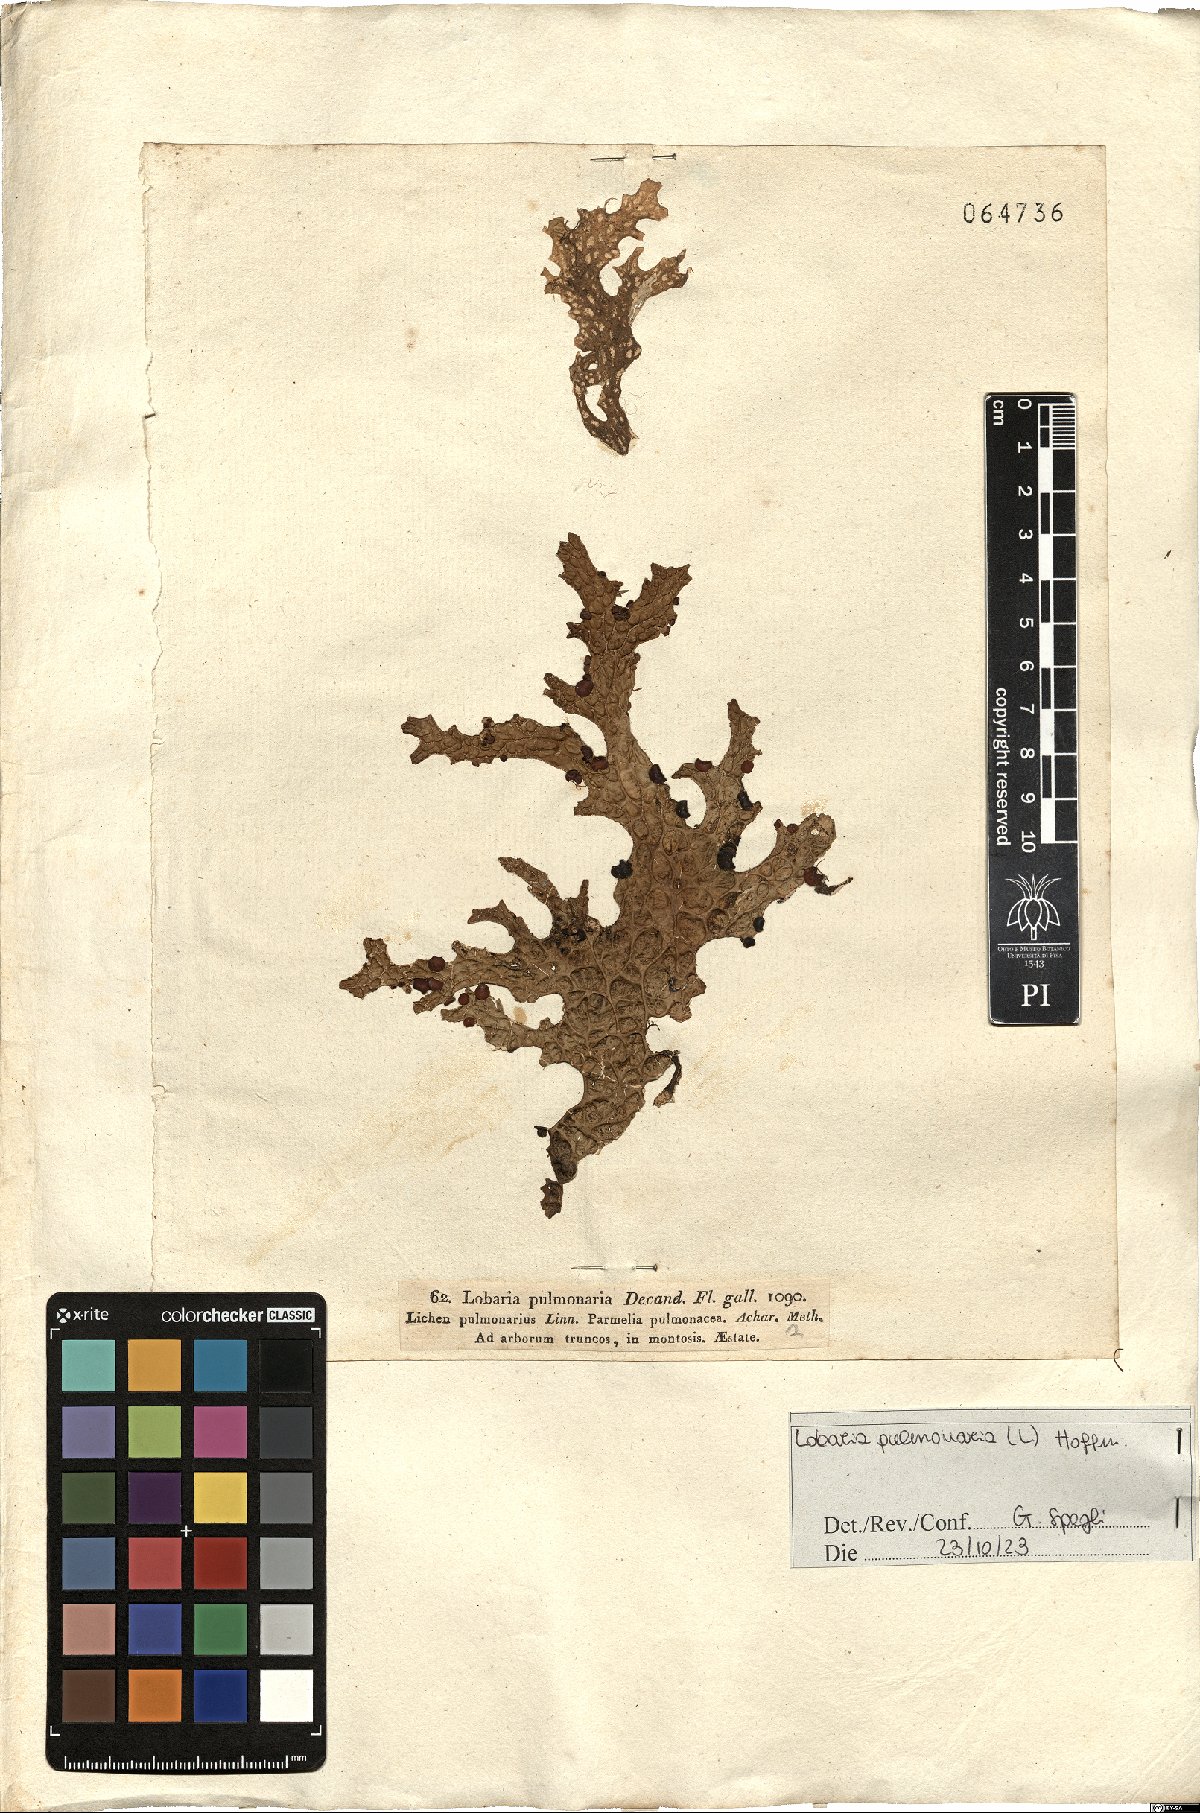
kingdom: Fungi
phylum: Ascomycota
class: Lecanoromycetes
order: Peltigerales
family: Lobariaceae
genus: Lobaria
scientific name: Lobaria pulmonaria
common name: Lungwort
